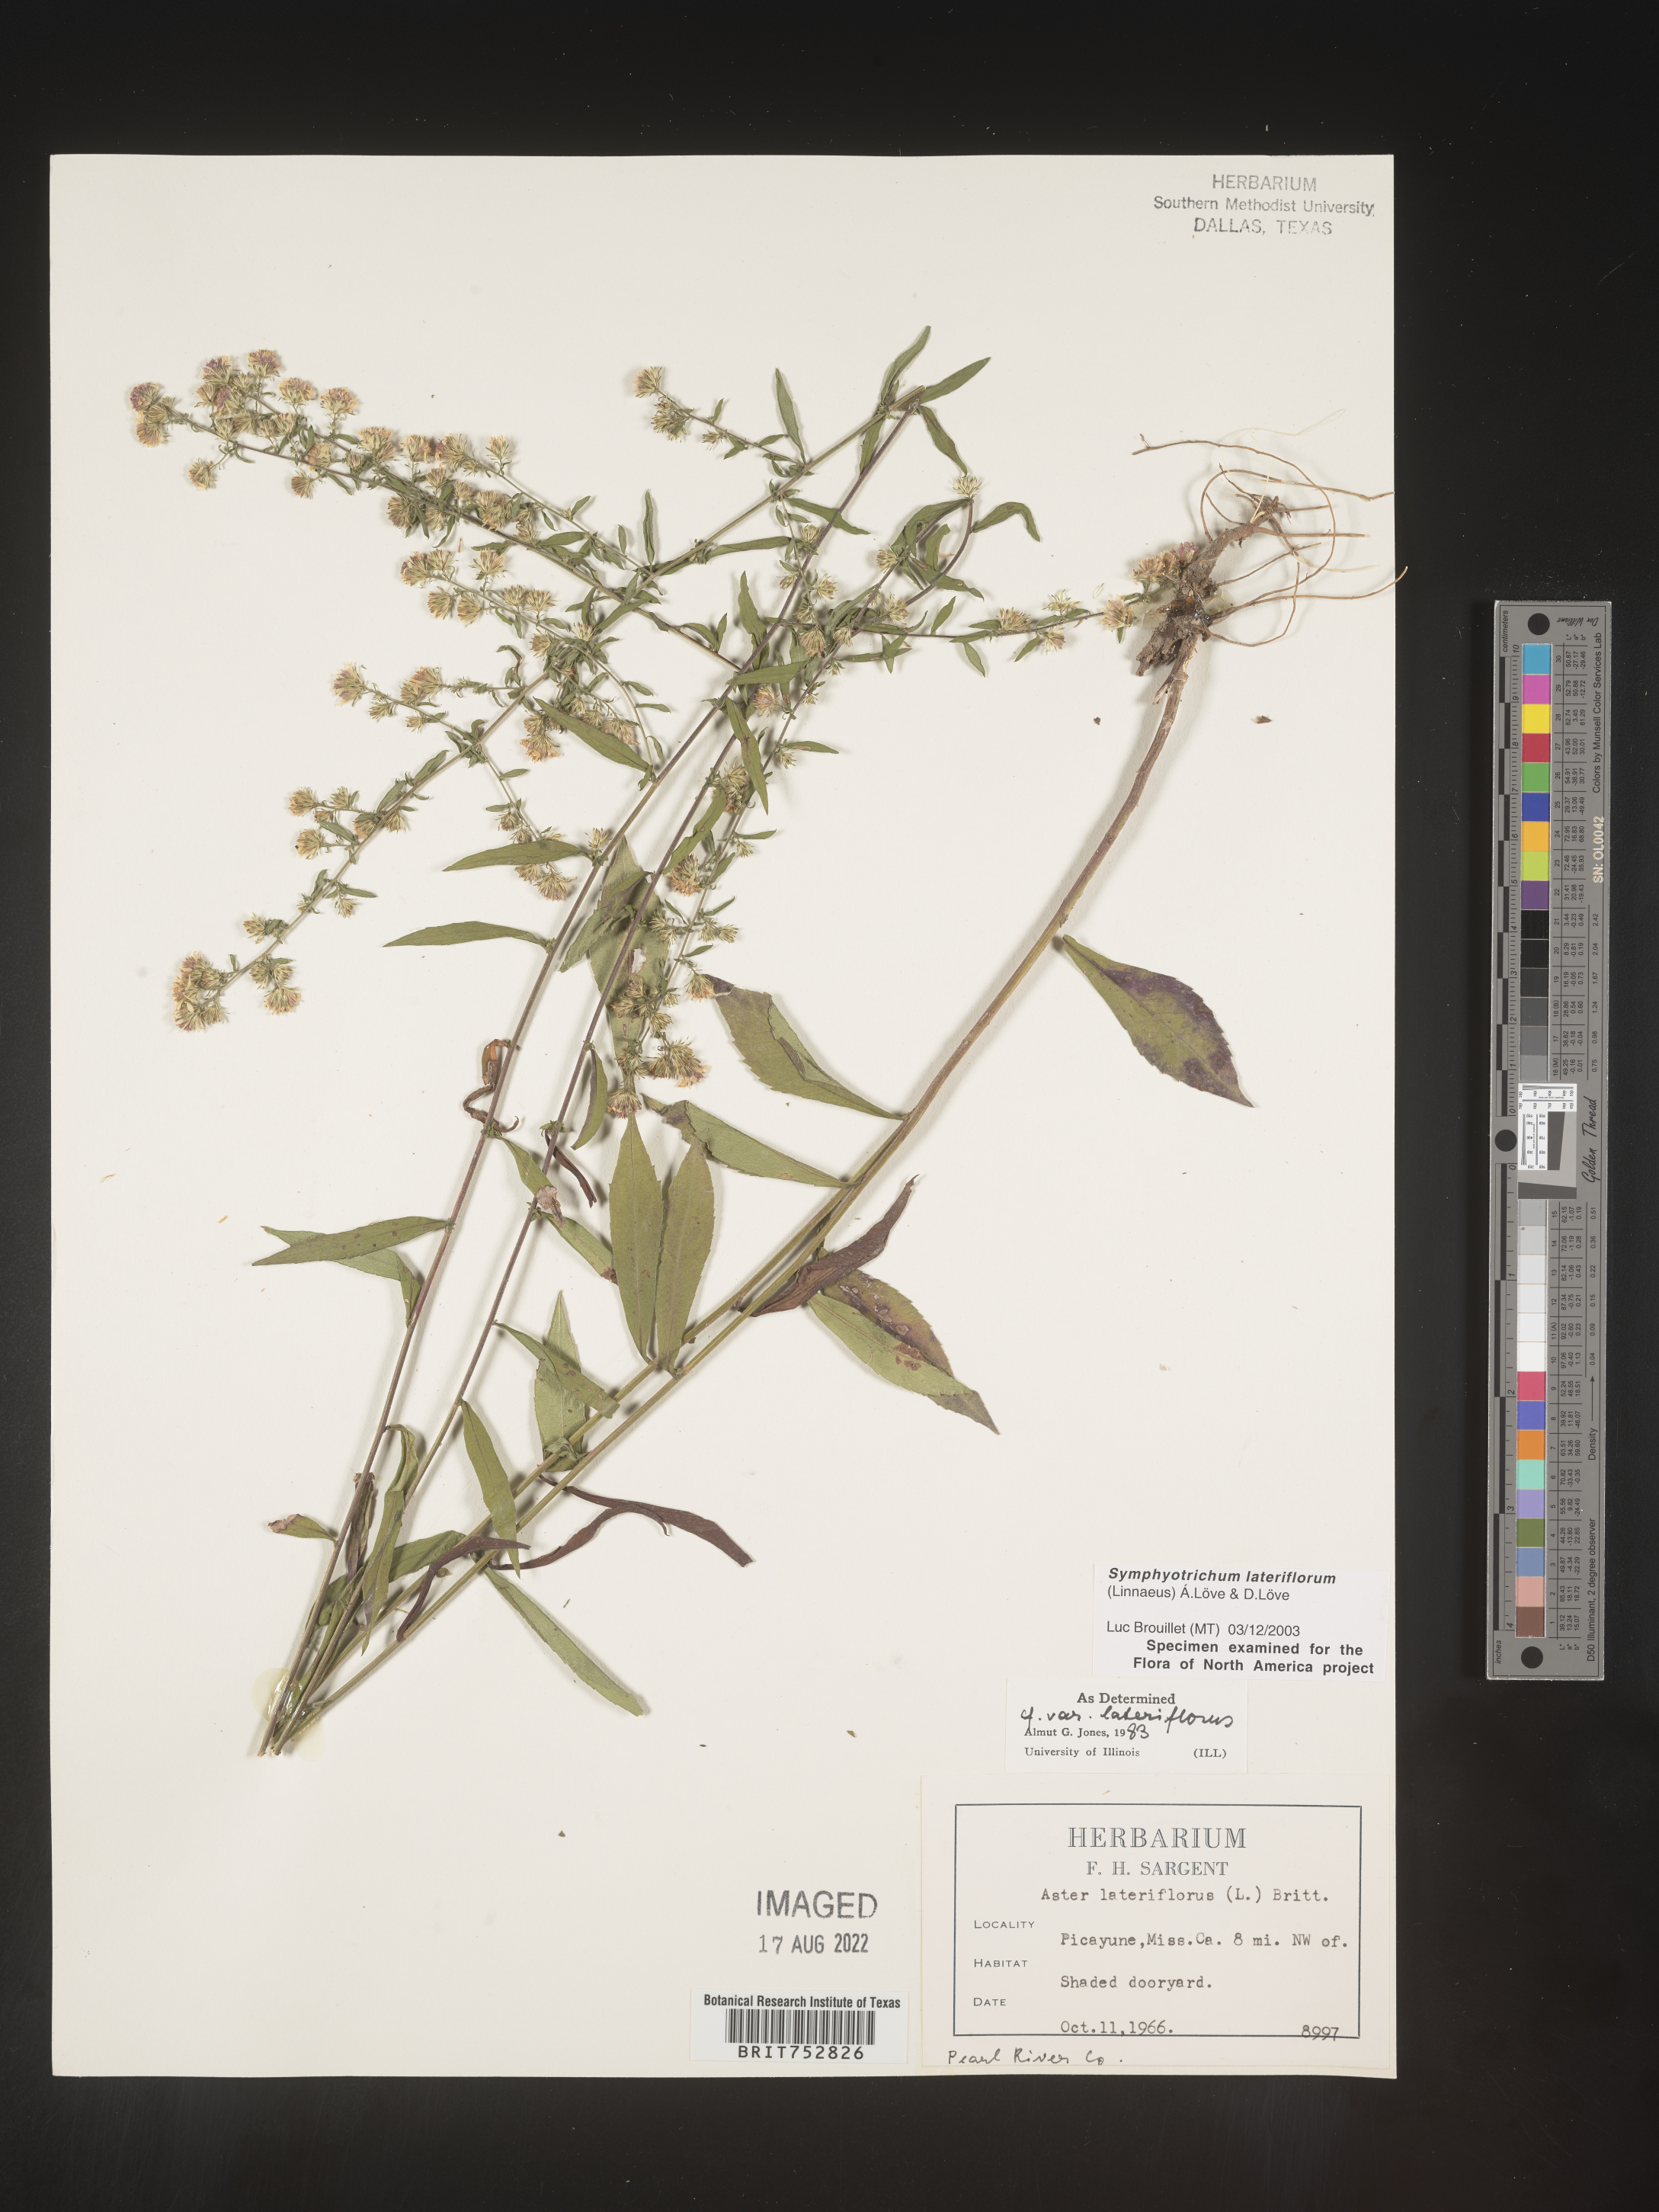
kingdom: Plantae
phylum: Tracheophyta
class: Magnoliopsida
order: Asterales
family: Asteraceae
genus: Symphyotrichum
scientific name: Symphyotrichum lateriflorum
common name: Calico aster
